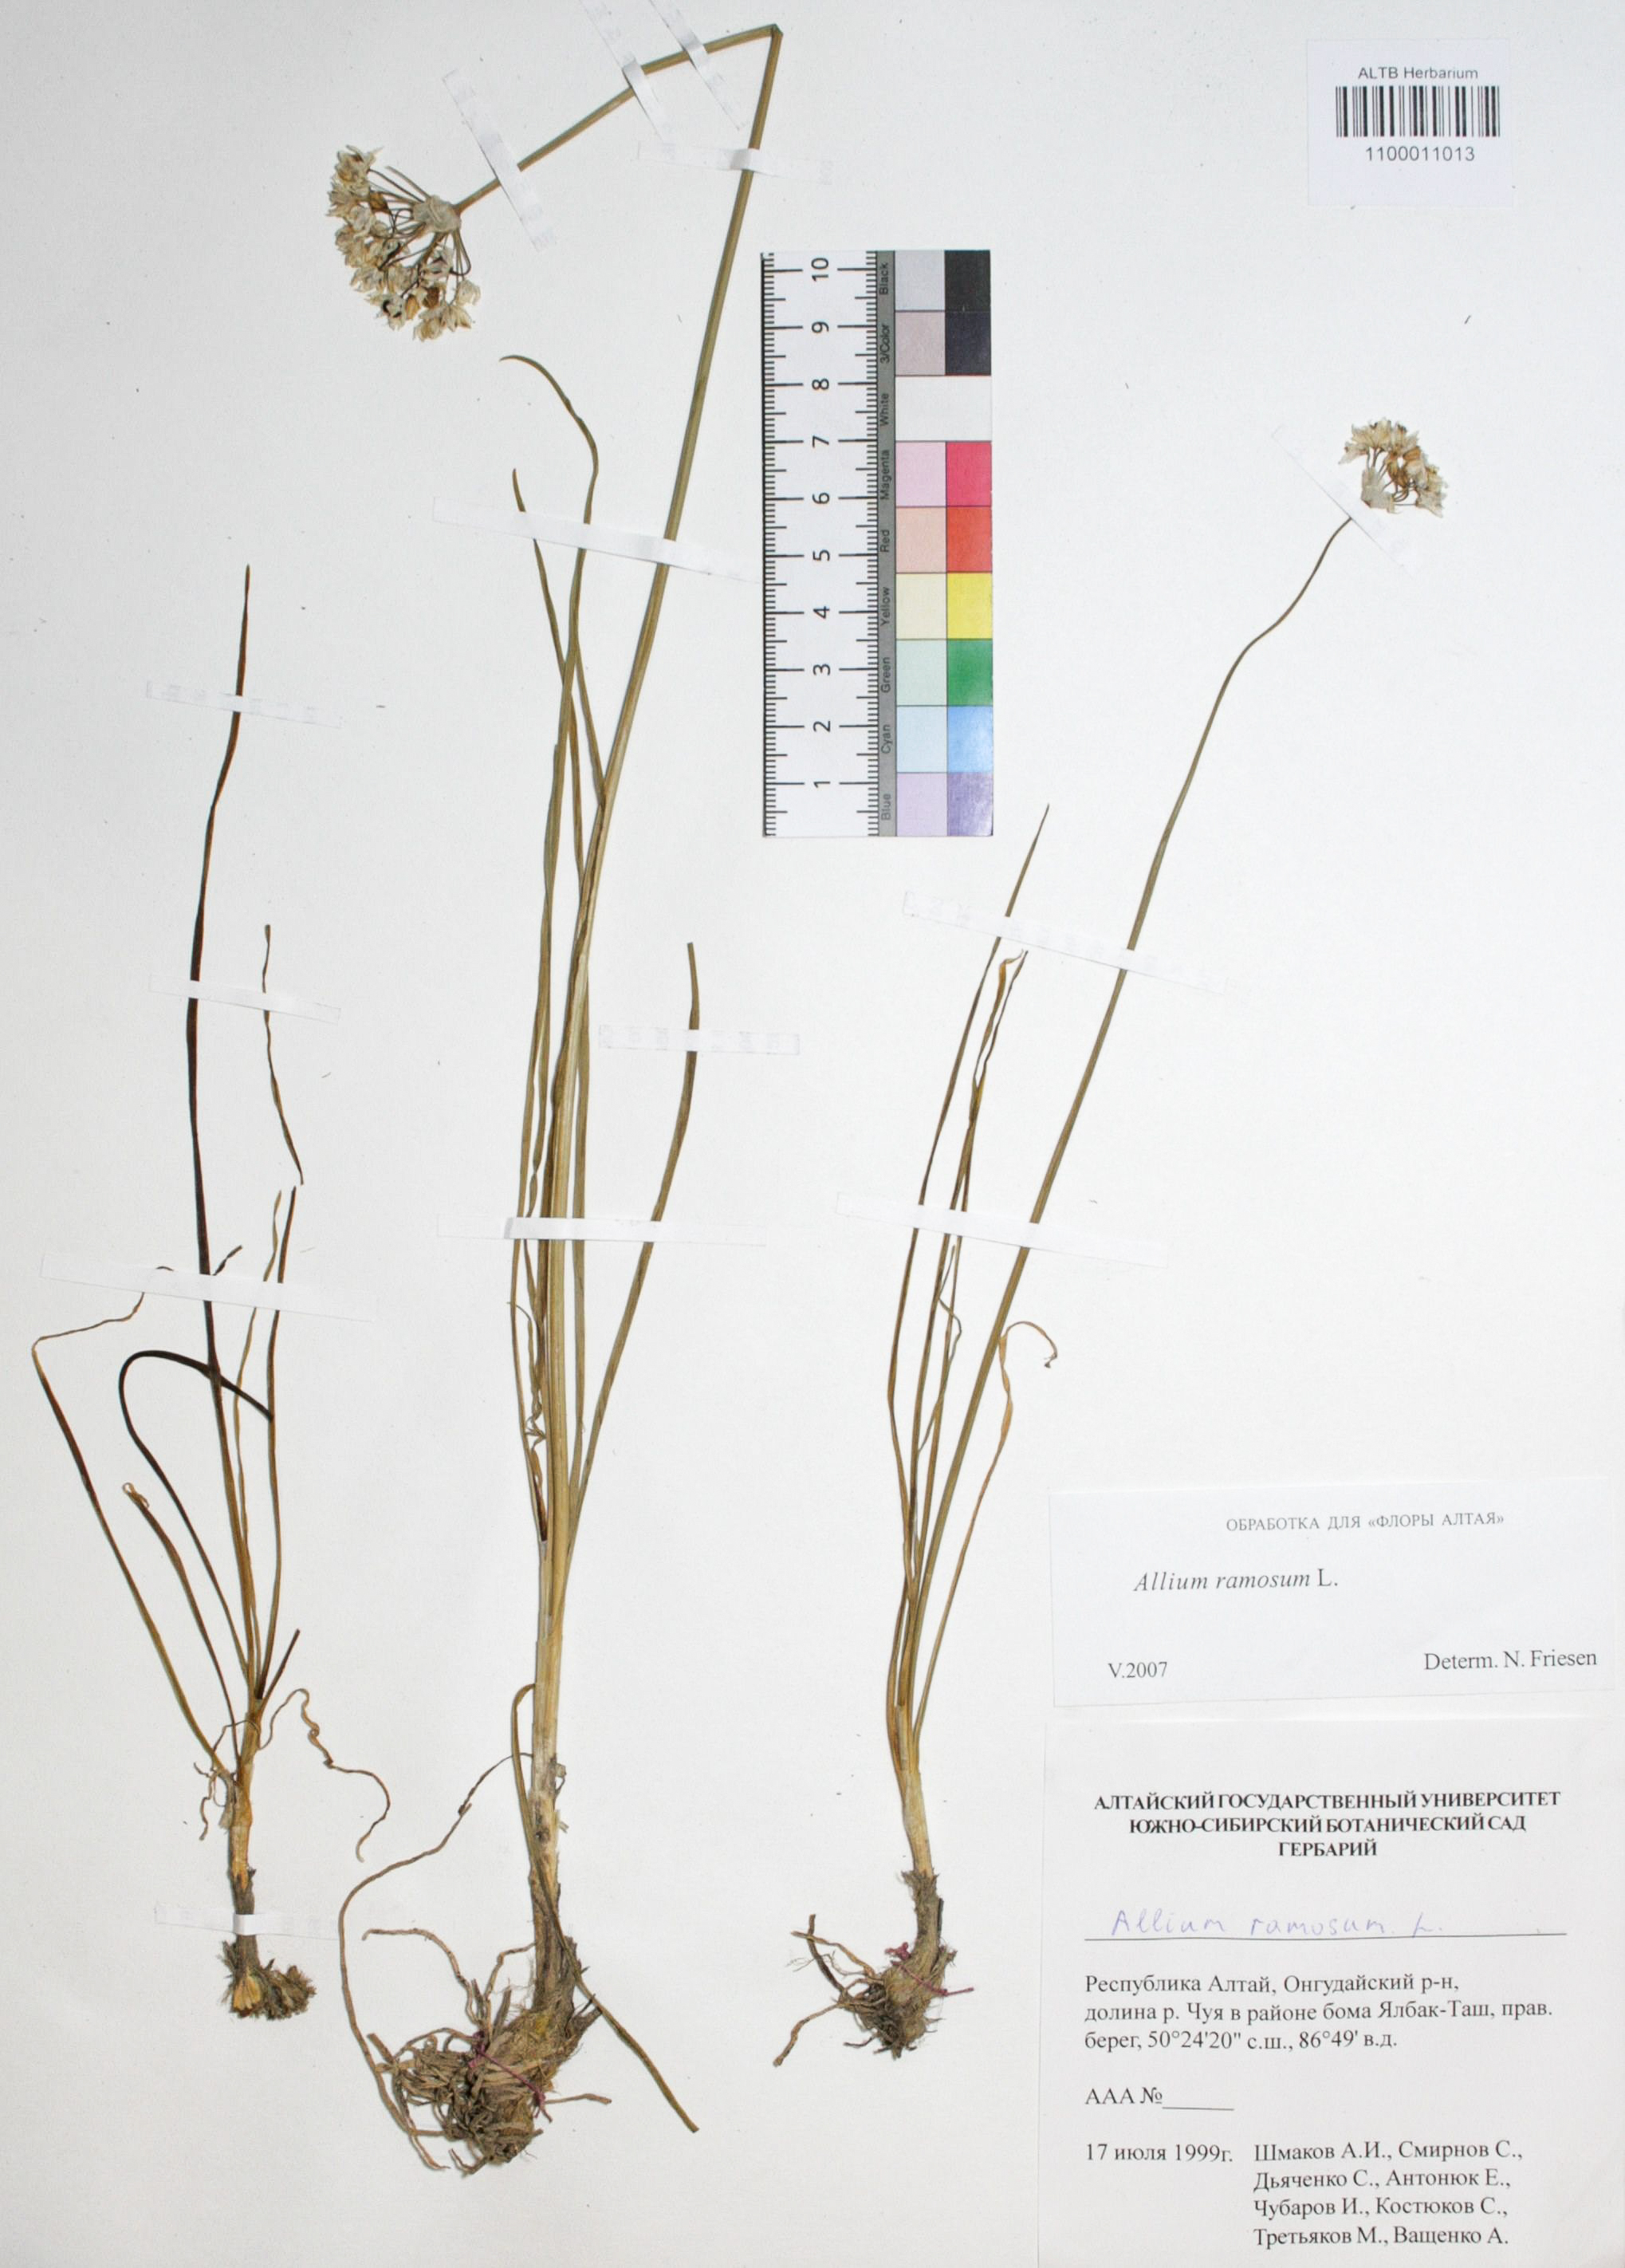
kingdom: Plantae
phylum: Tracheophyta
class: Liliopsida
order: Asparagales
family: Amaryllidaceae
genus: Allium
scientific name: Allium ramosum
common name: Fragrant garlic
